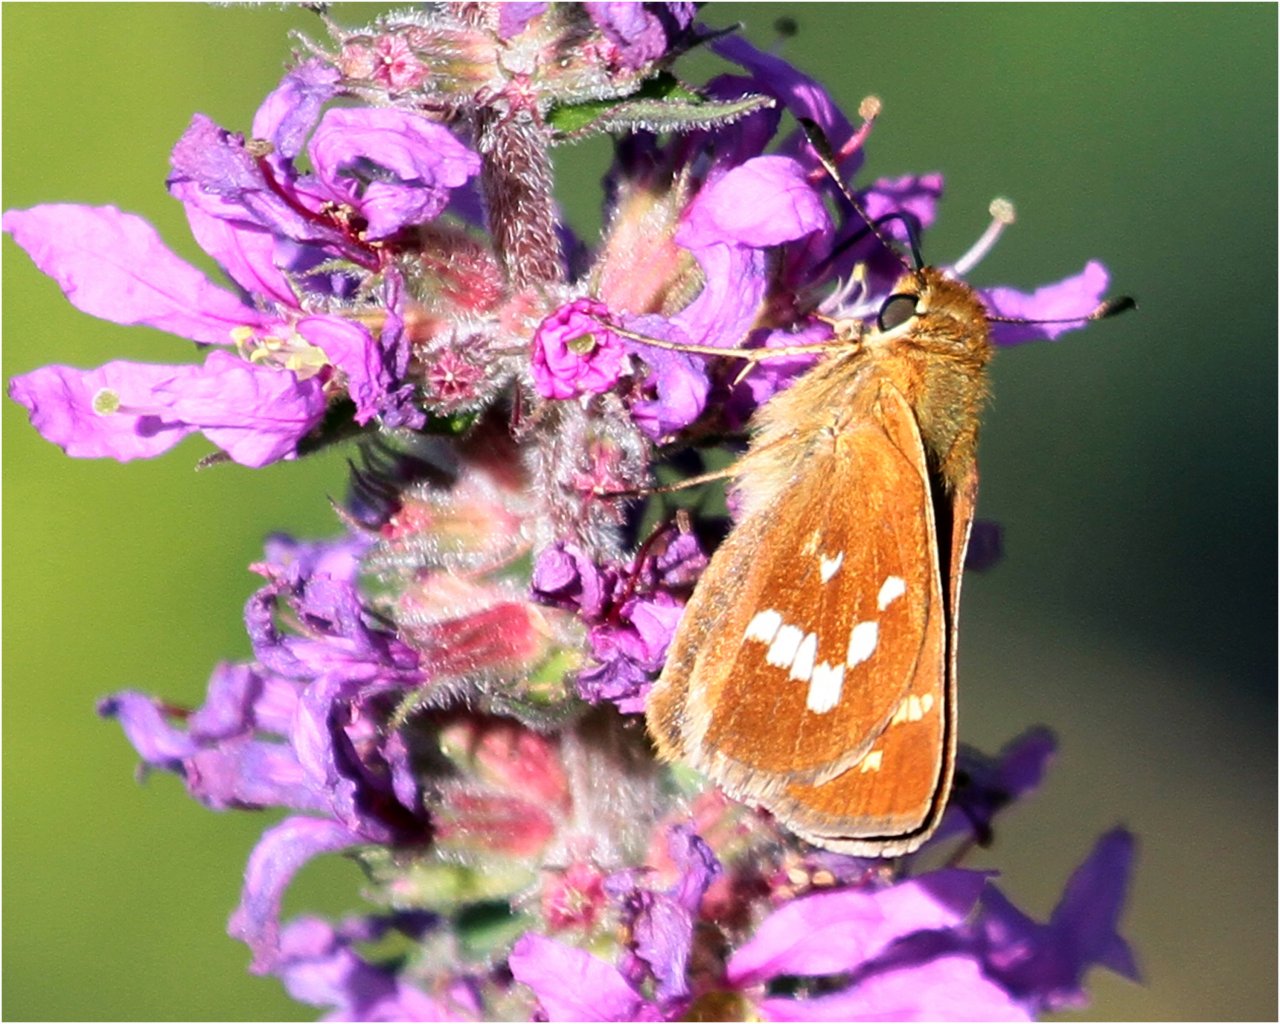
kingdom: Animalia
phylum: Arthropoda
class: Insecta
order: Lepidoptera
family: Hesperiidae
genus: Hesperia
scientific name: Hesperia leonardus
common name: Leonard's Skipper
